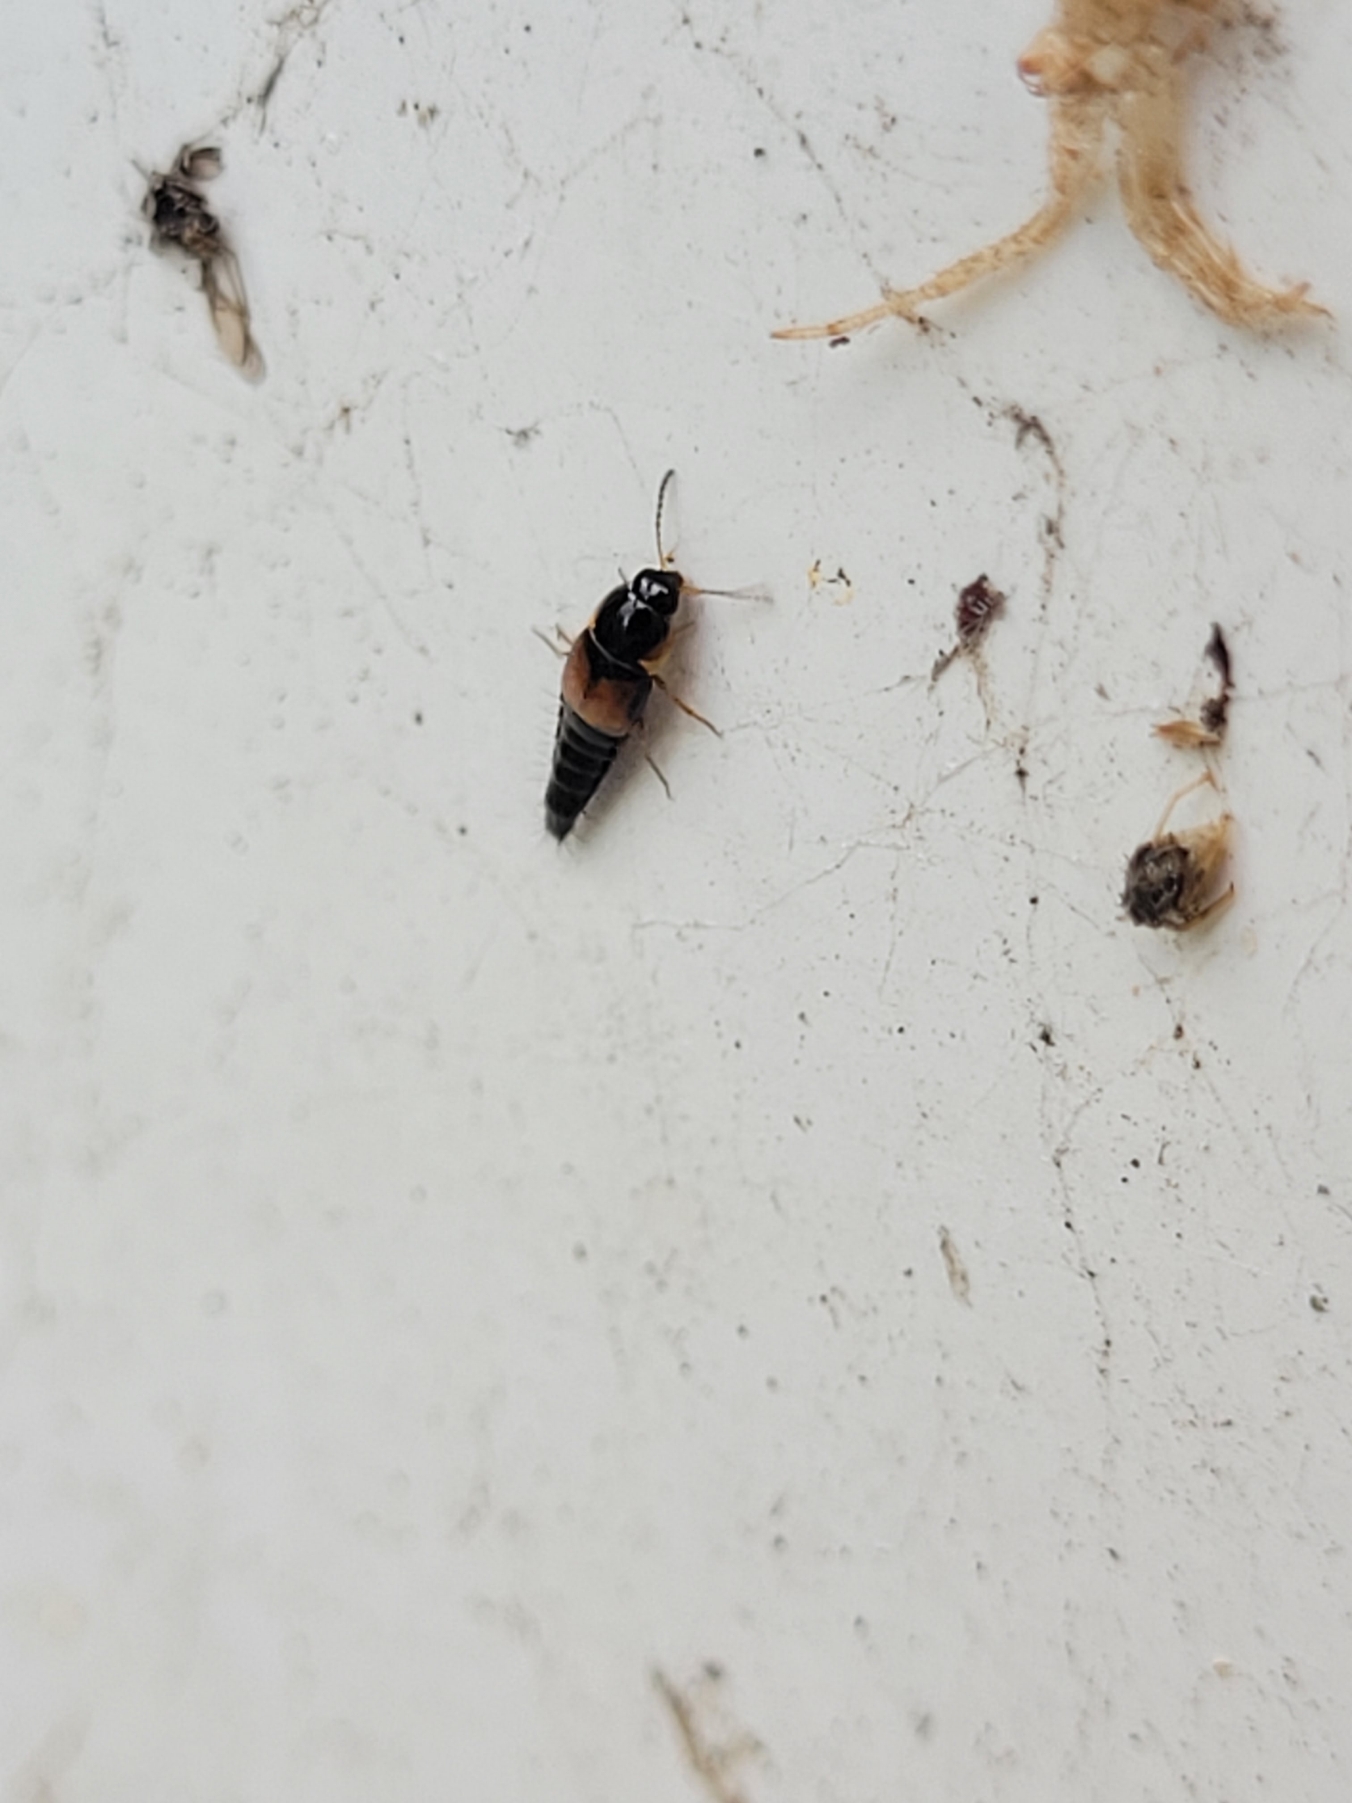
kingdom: Animalia
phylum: Arthropoda
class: Insecta
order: Coleoptera
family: Staphylinidae
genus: Tachyporus
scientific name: Tachyporus hypnorum
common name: Sortplettet agerrovbille
